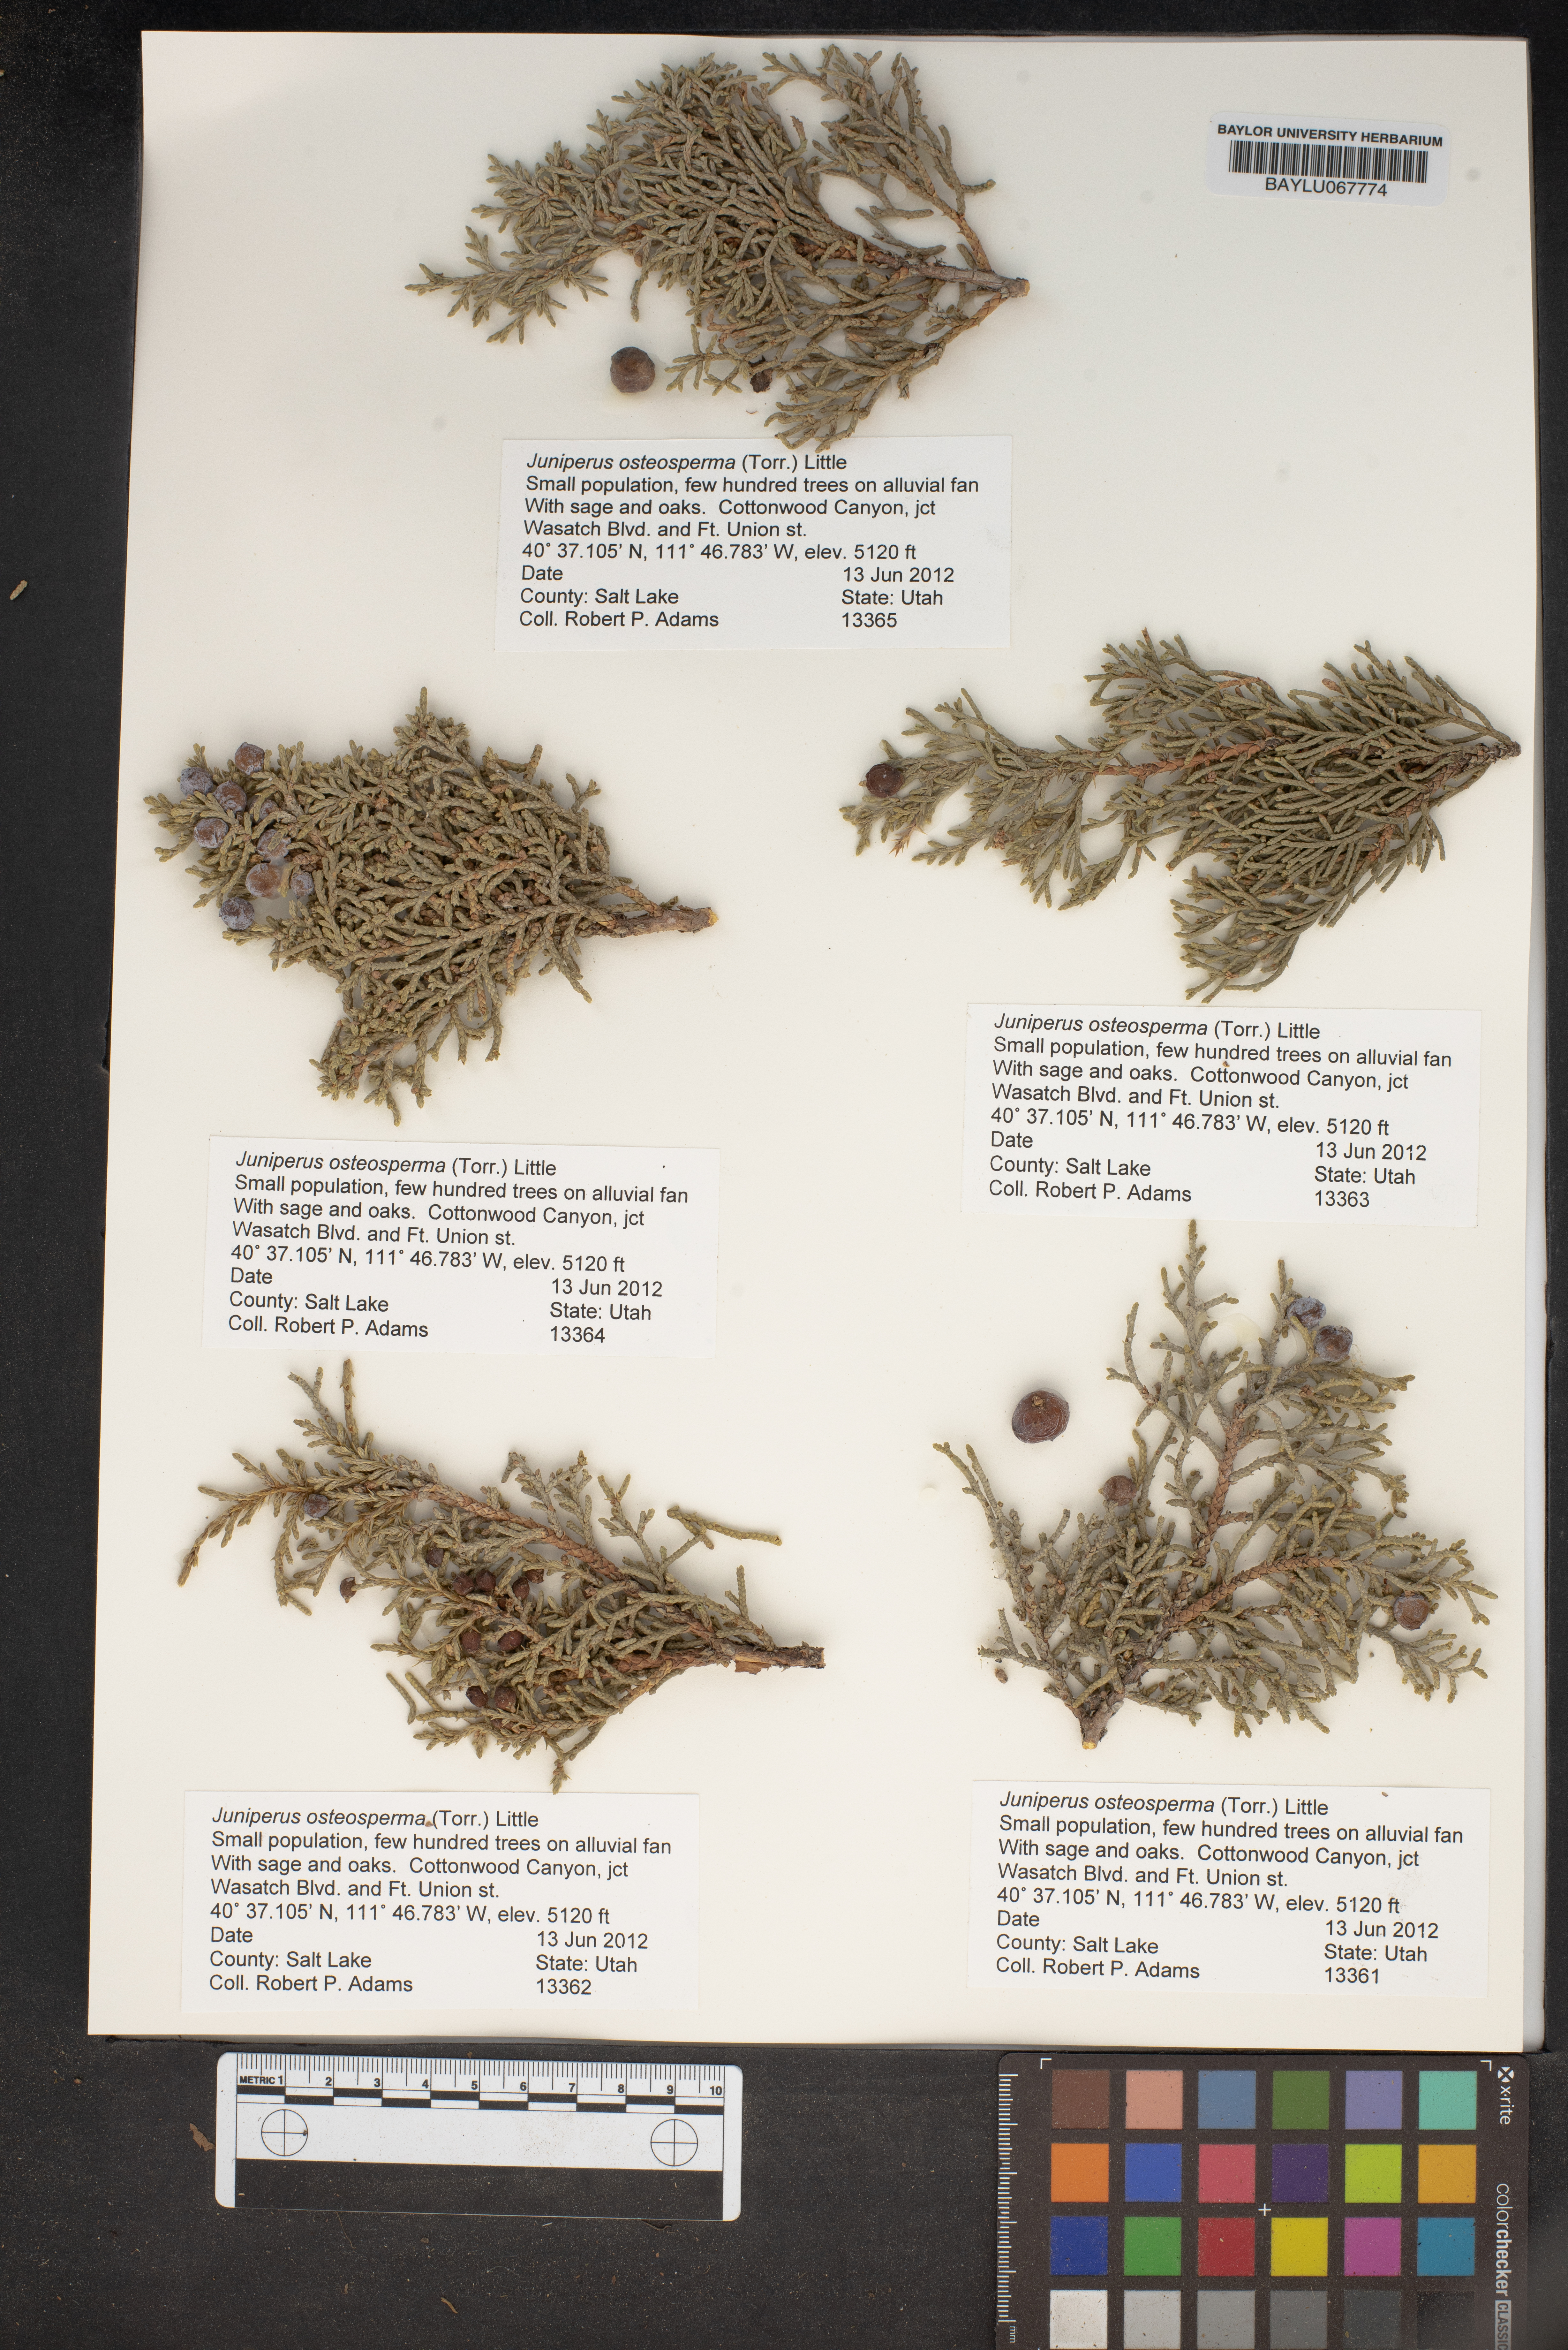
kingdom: Plantae
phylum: Tracheophyta
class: Pinopsida
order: Pinales
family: Cupressaceae
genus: Juniperus
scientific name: Juniperus osteosperma
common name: Utah juniper
